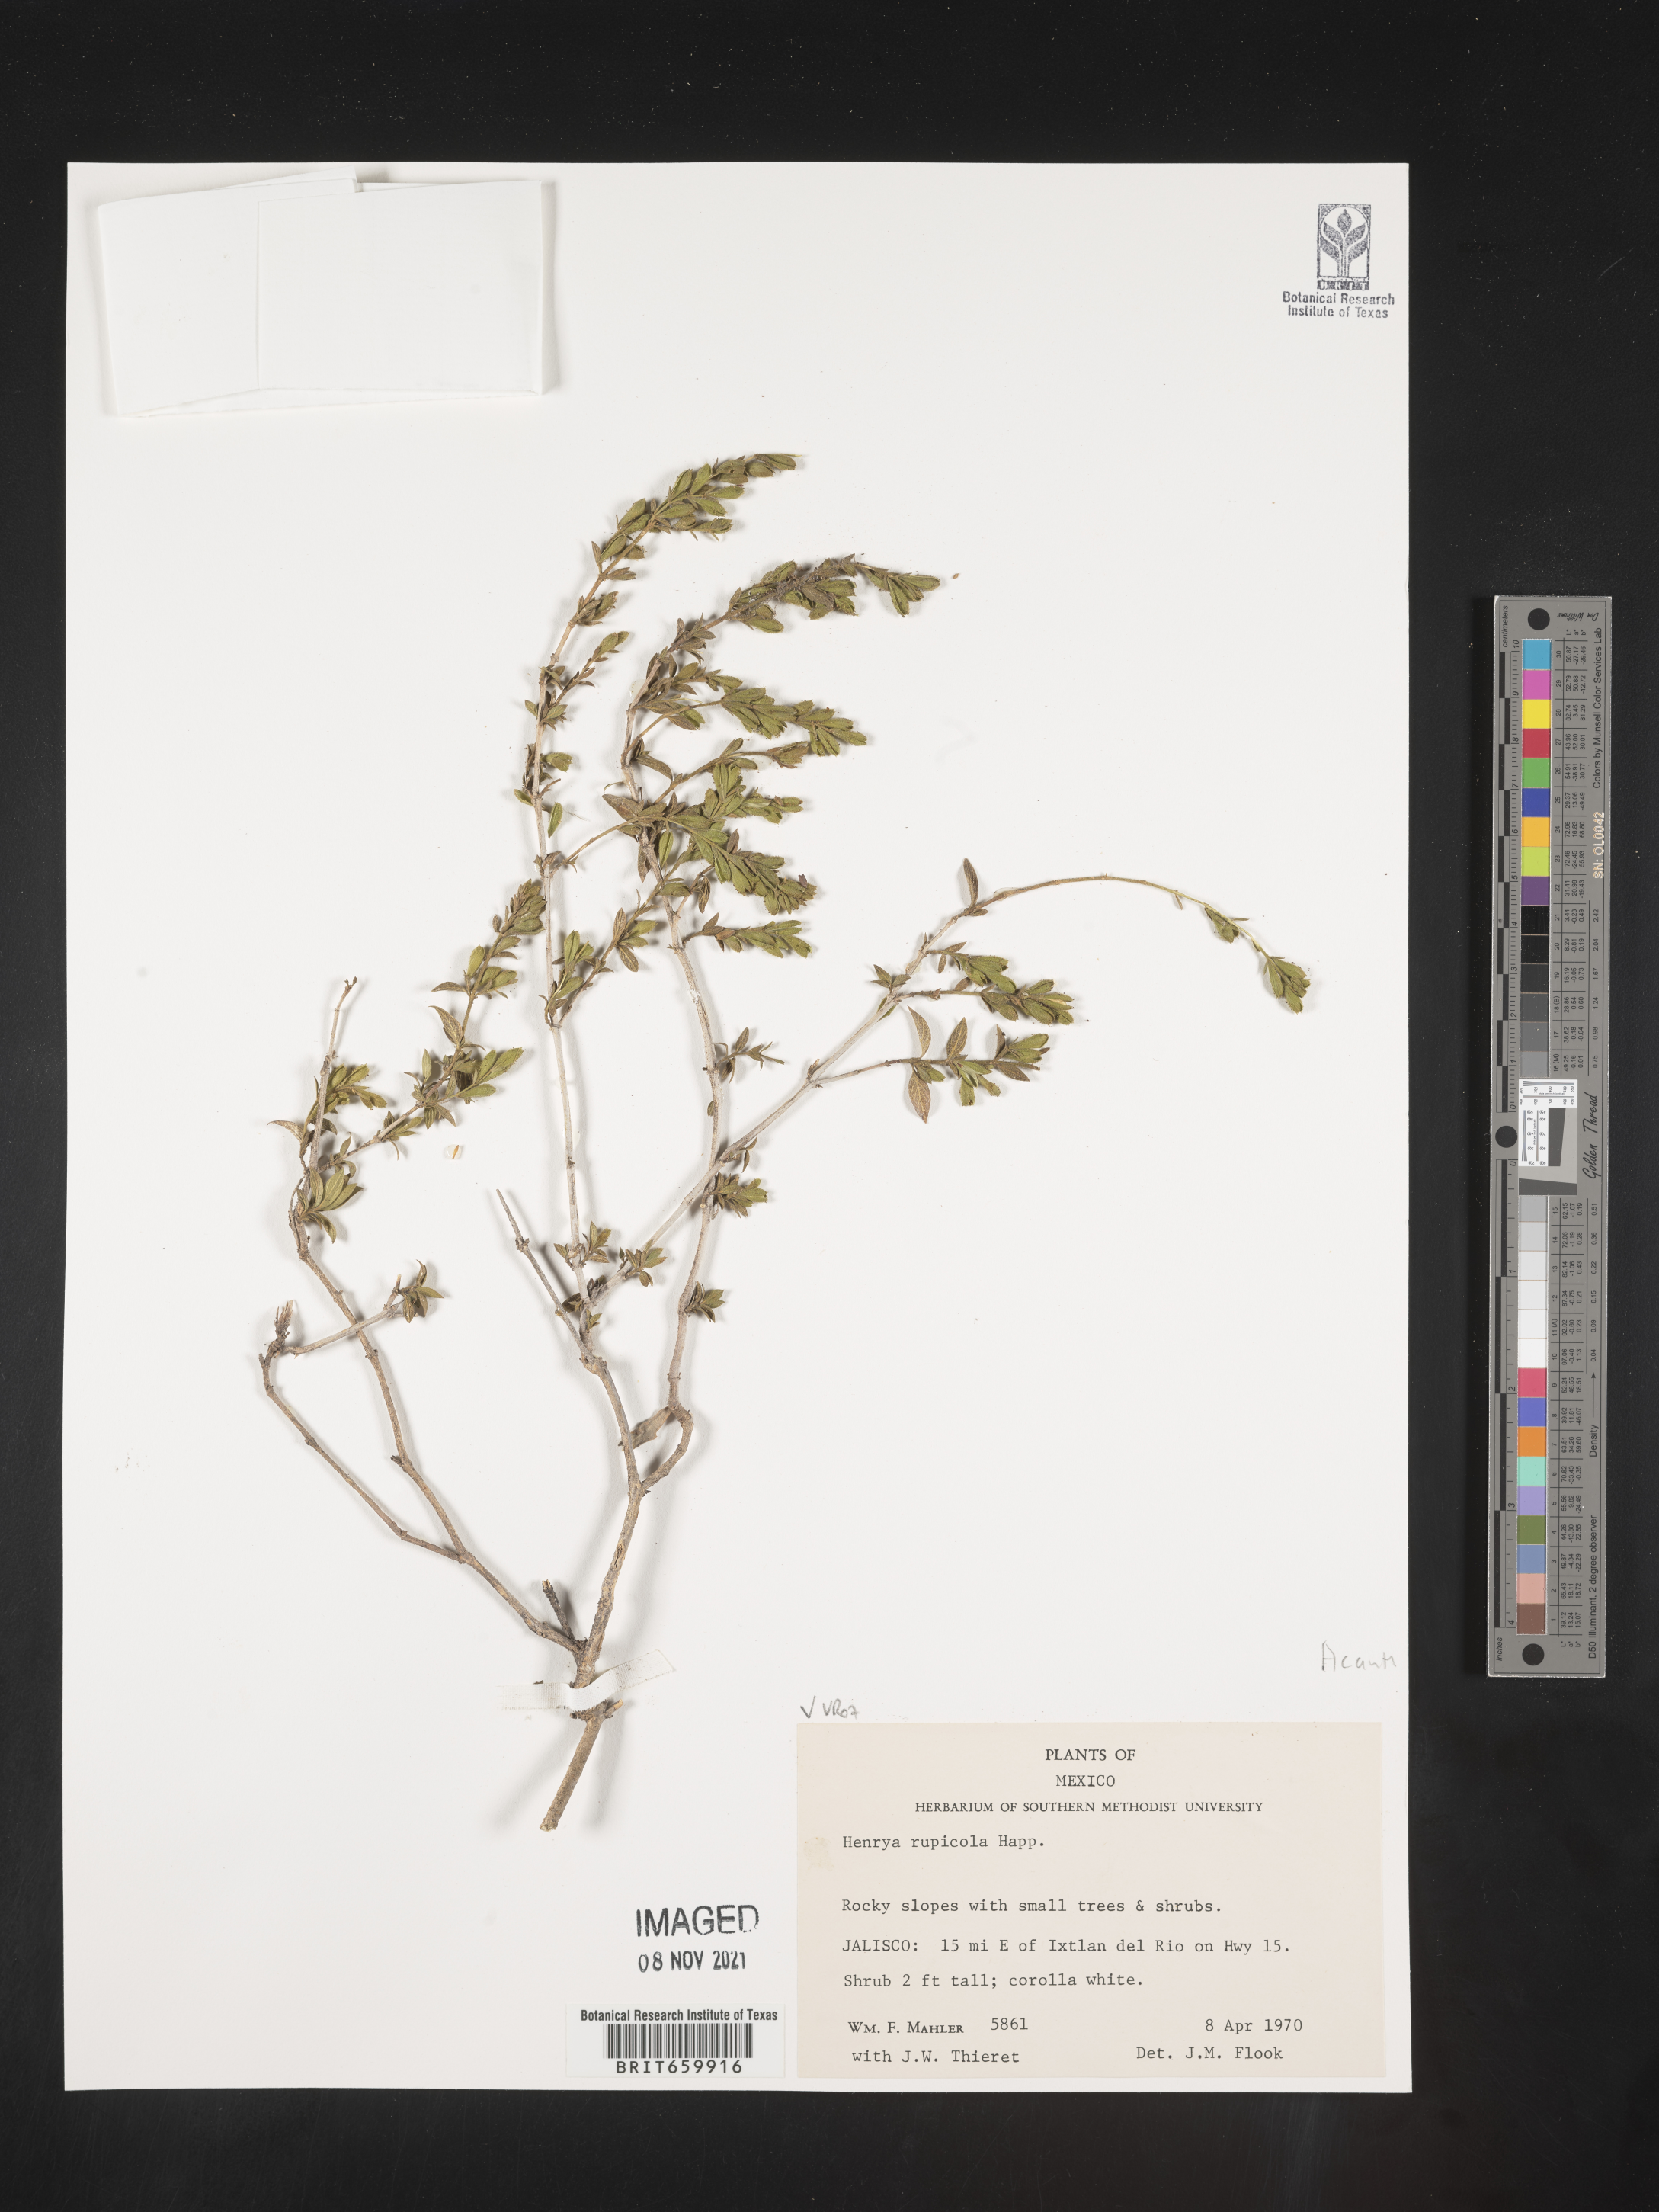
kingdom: Plantae
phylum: Tracheophyta
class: Magnoliopsida
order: Lamiales
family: Acanthaceae
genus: Henrya
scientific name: Henrya
